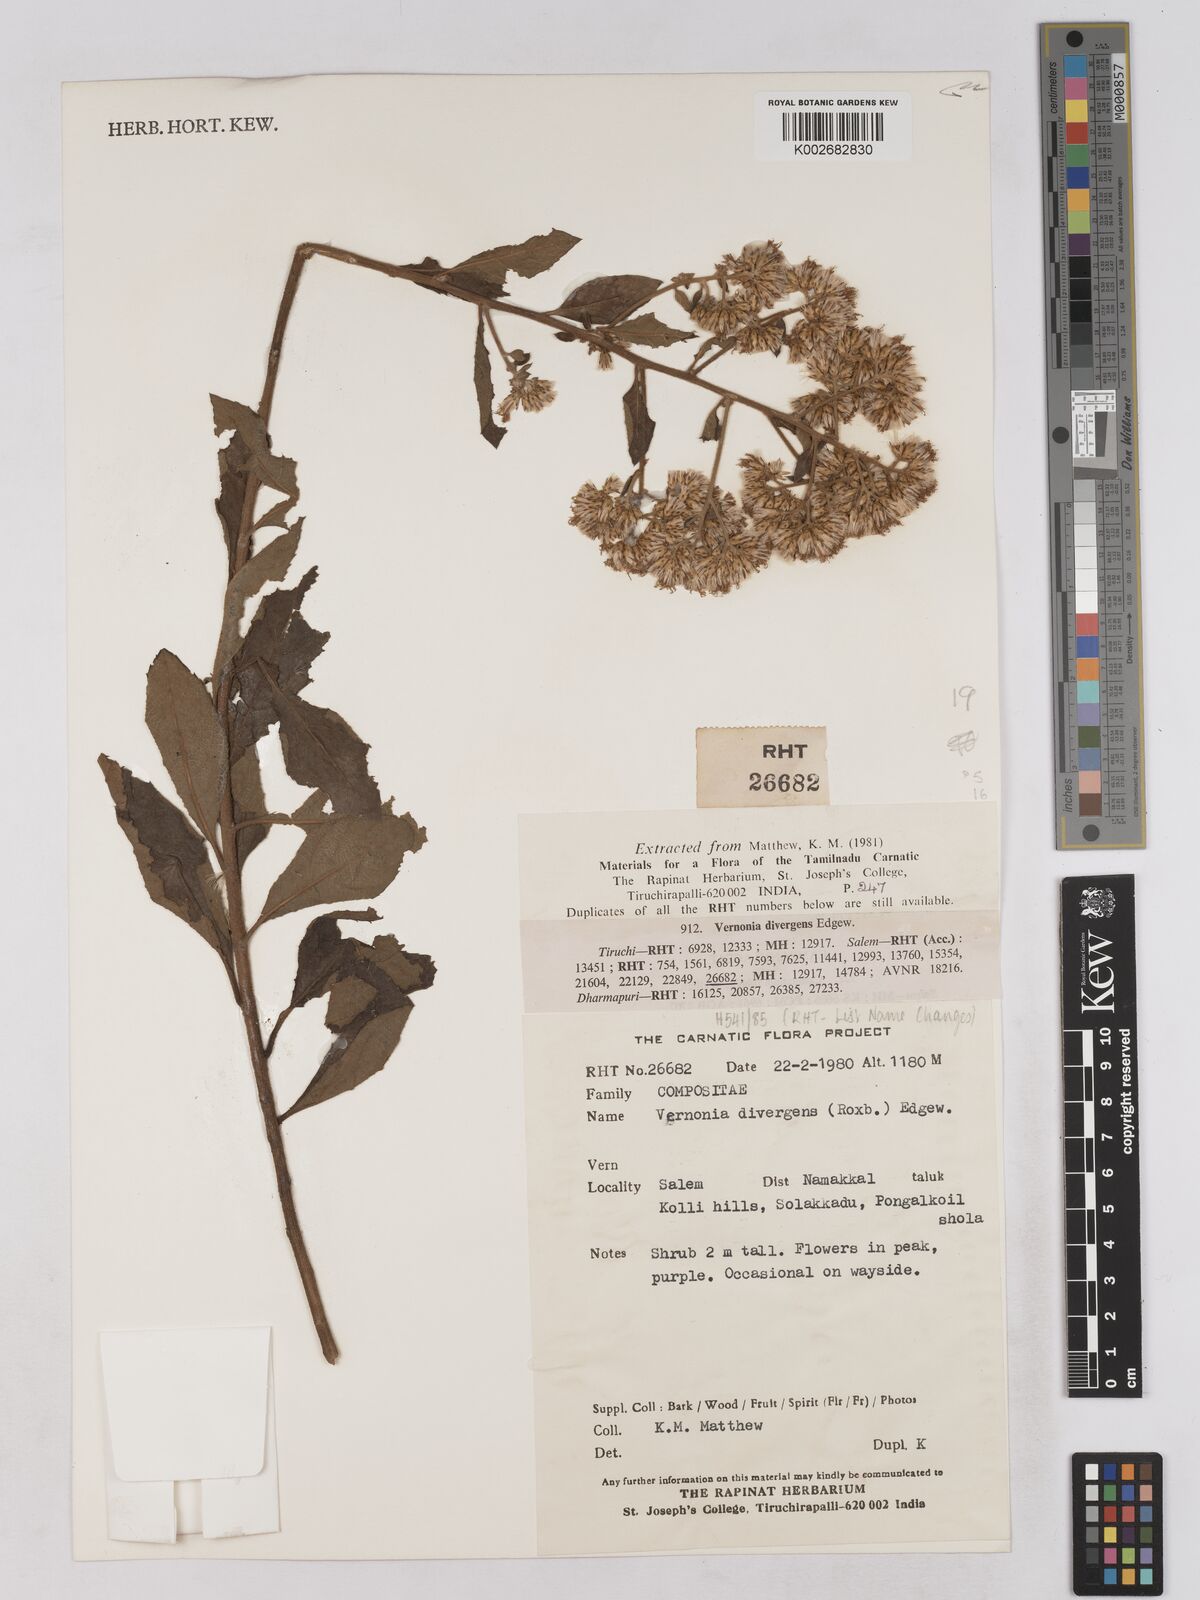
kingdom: Plantae
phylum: Tracheophyta
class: Magnoliopsida
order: Asterales
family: Asteraceae
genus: Acilepis
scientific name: Acilepis divergens
